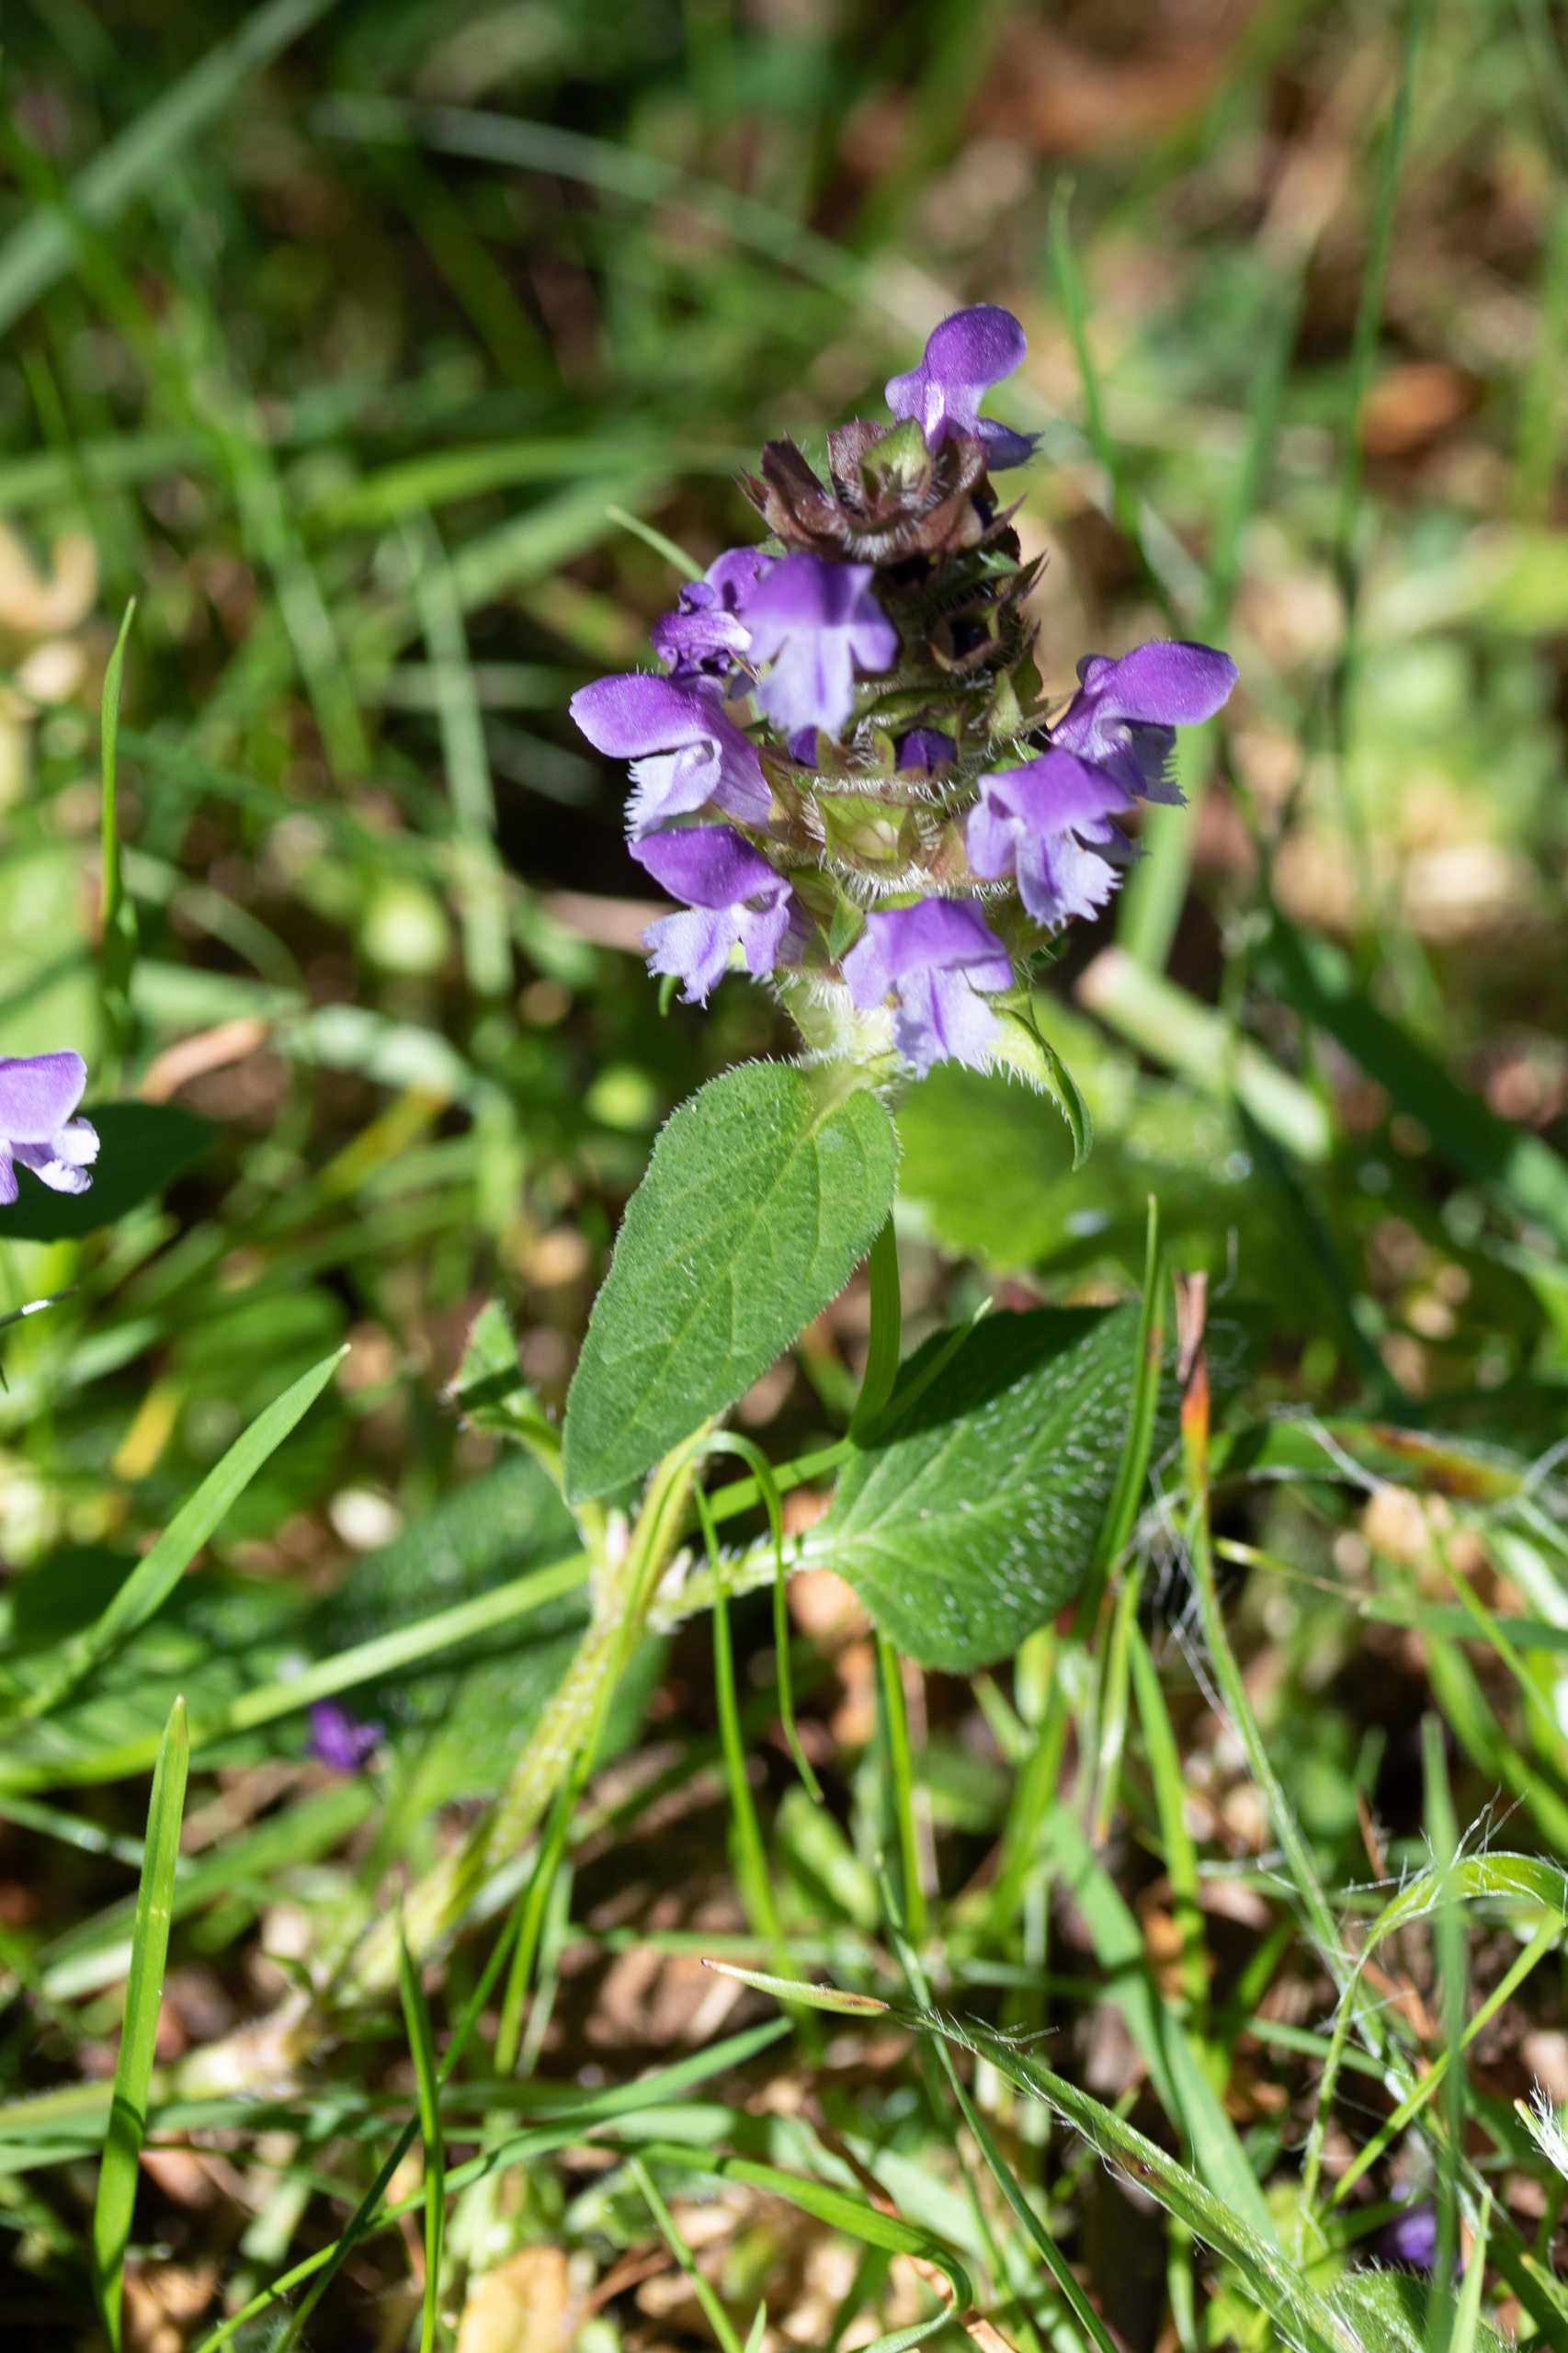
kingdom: Plantae
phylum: Tracheophyta
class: Magnoliopsida
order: Lamiales
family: Lamiaceae
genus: Prunella
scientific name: Prunella vulgaris
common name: Almindelig brunelle
